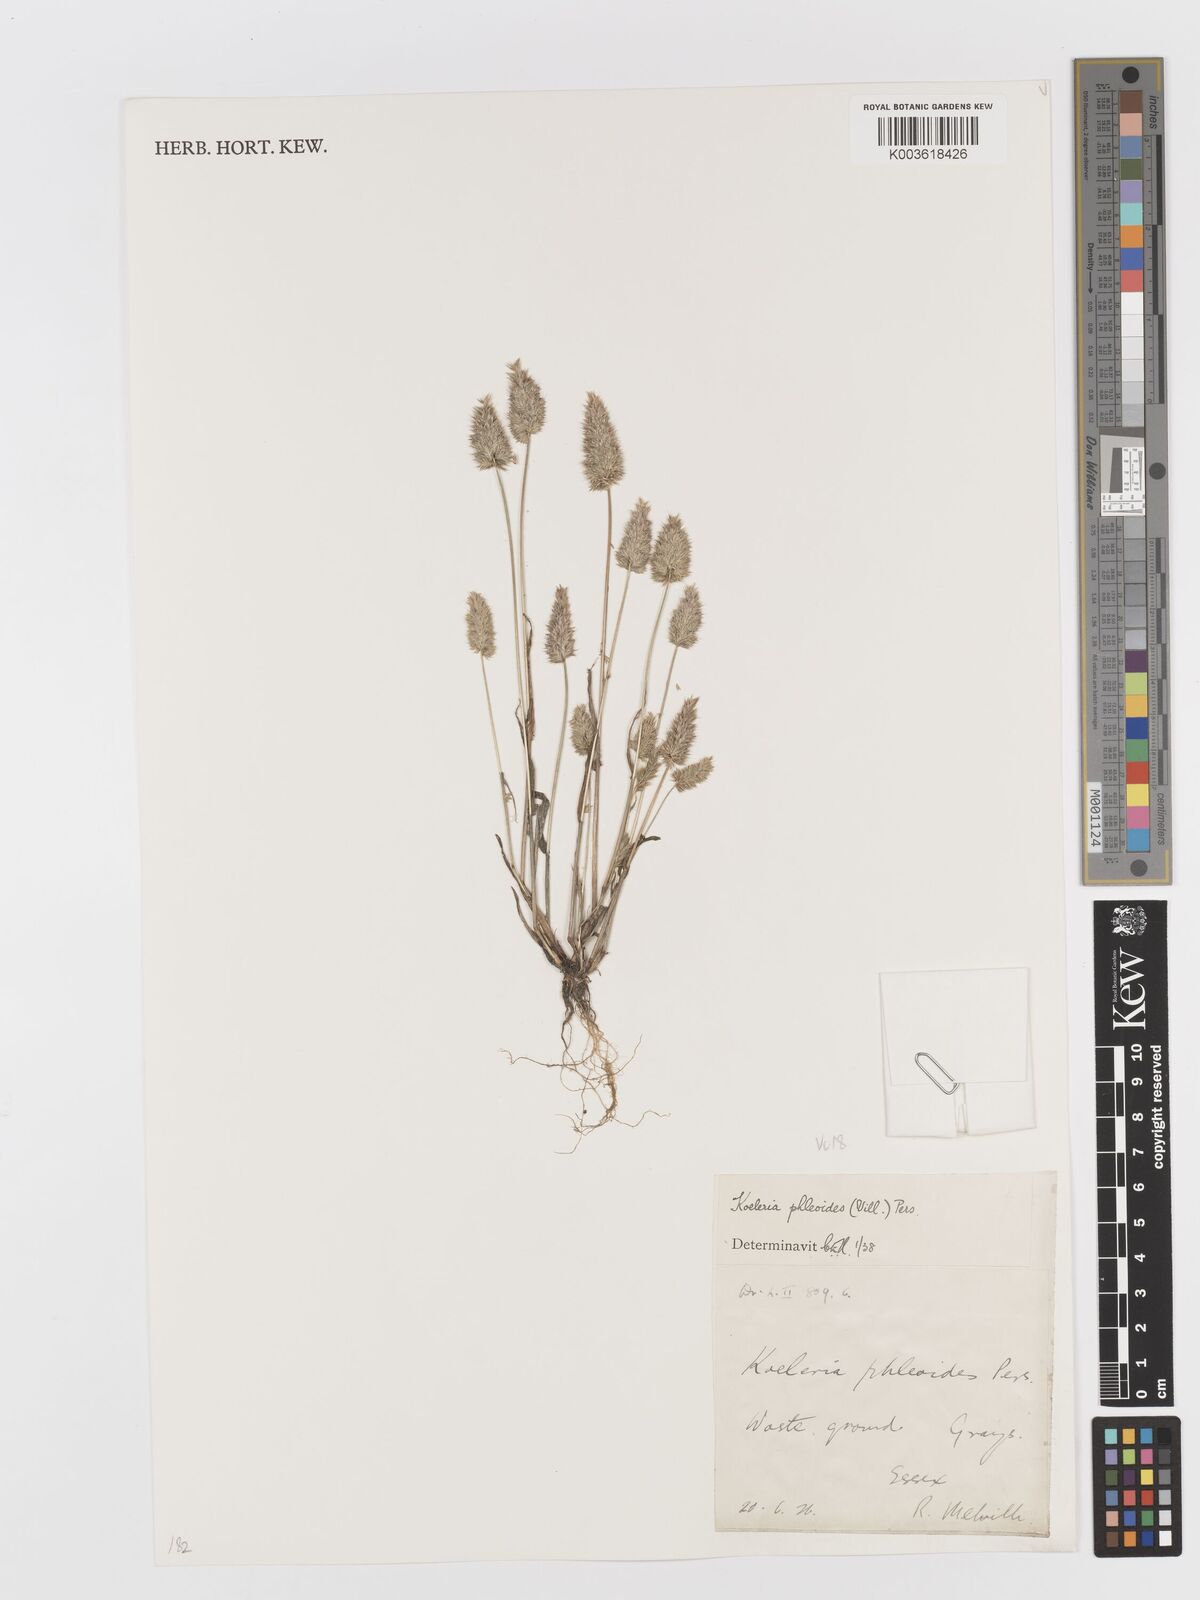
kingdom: Plantae
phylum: Tracheophyta
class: Liliopsida
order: Poales
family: Poaceae
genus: Rostraria
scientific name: Rostraria cristata
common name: Mediterranean hair-grass
